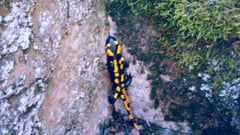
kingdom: Animalia
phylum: Chordata
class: Amphibia
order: Caudata
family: Salamandridae
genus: Salamandra
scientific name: Salamandra salamandra
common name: Fire salamander
